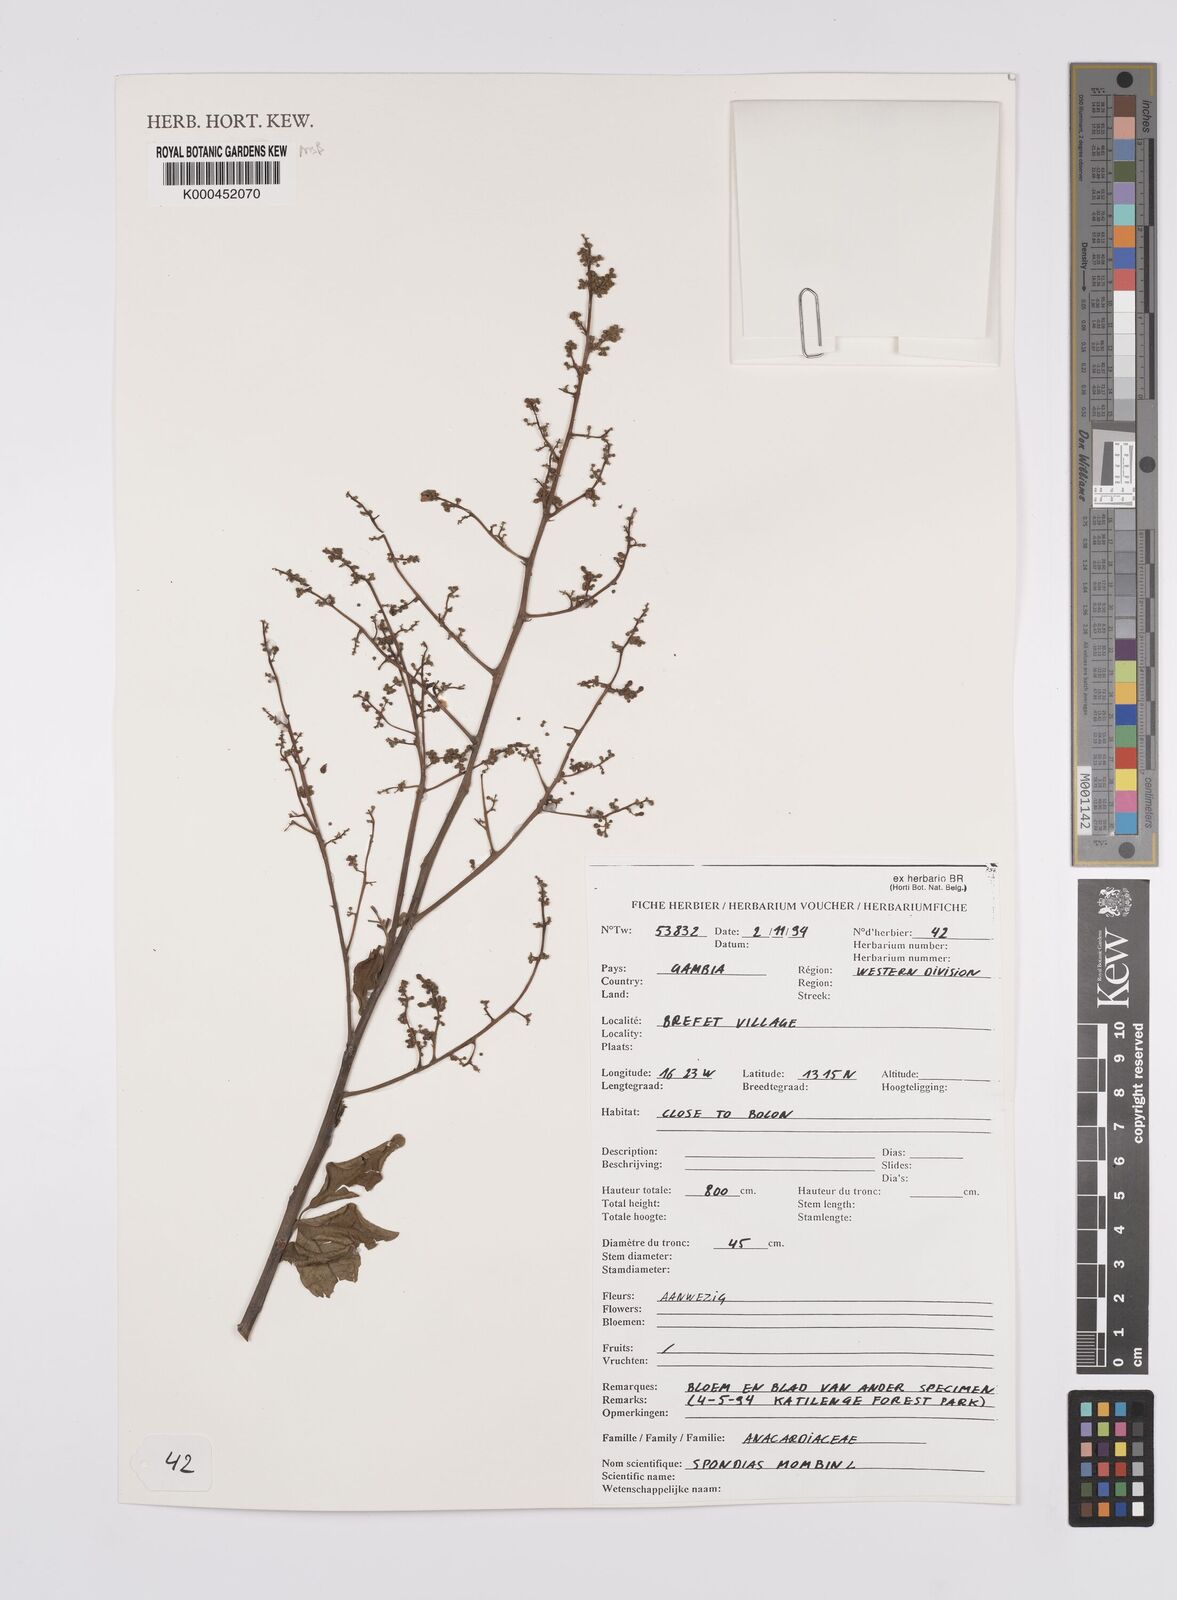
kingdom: Plantae
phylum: Tracheophyta
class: Magnoliopsida
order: Sapindales
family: Anacardiaceae
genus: Spondias
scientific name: Spondias mombin
